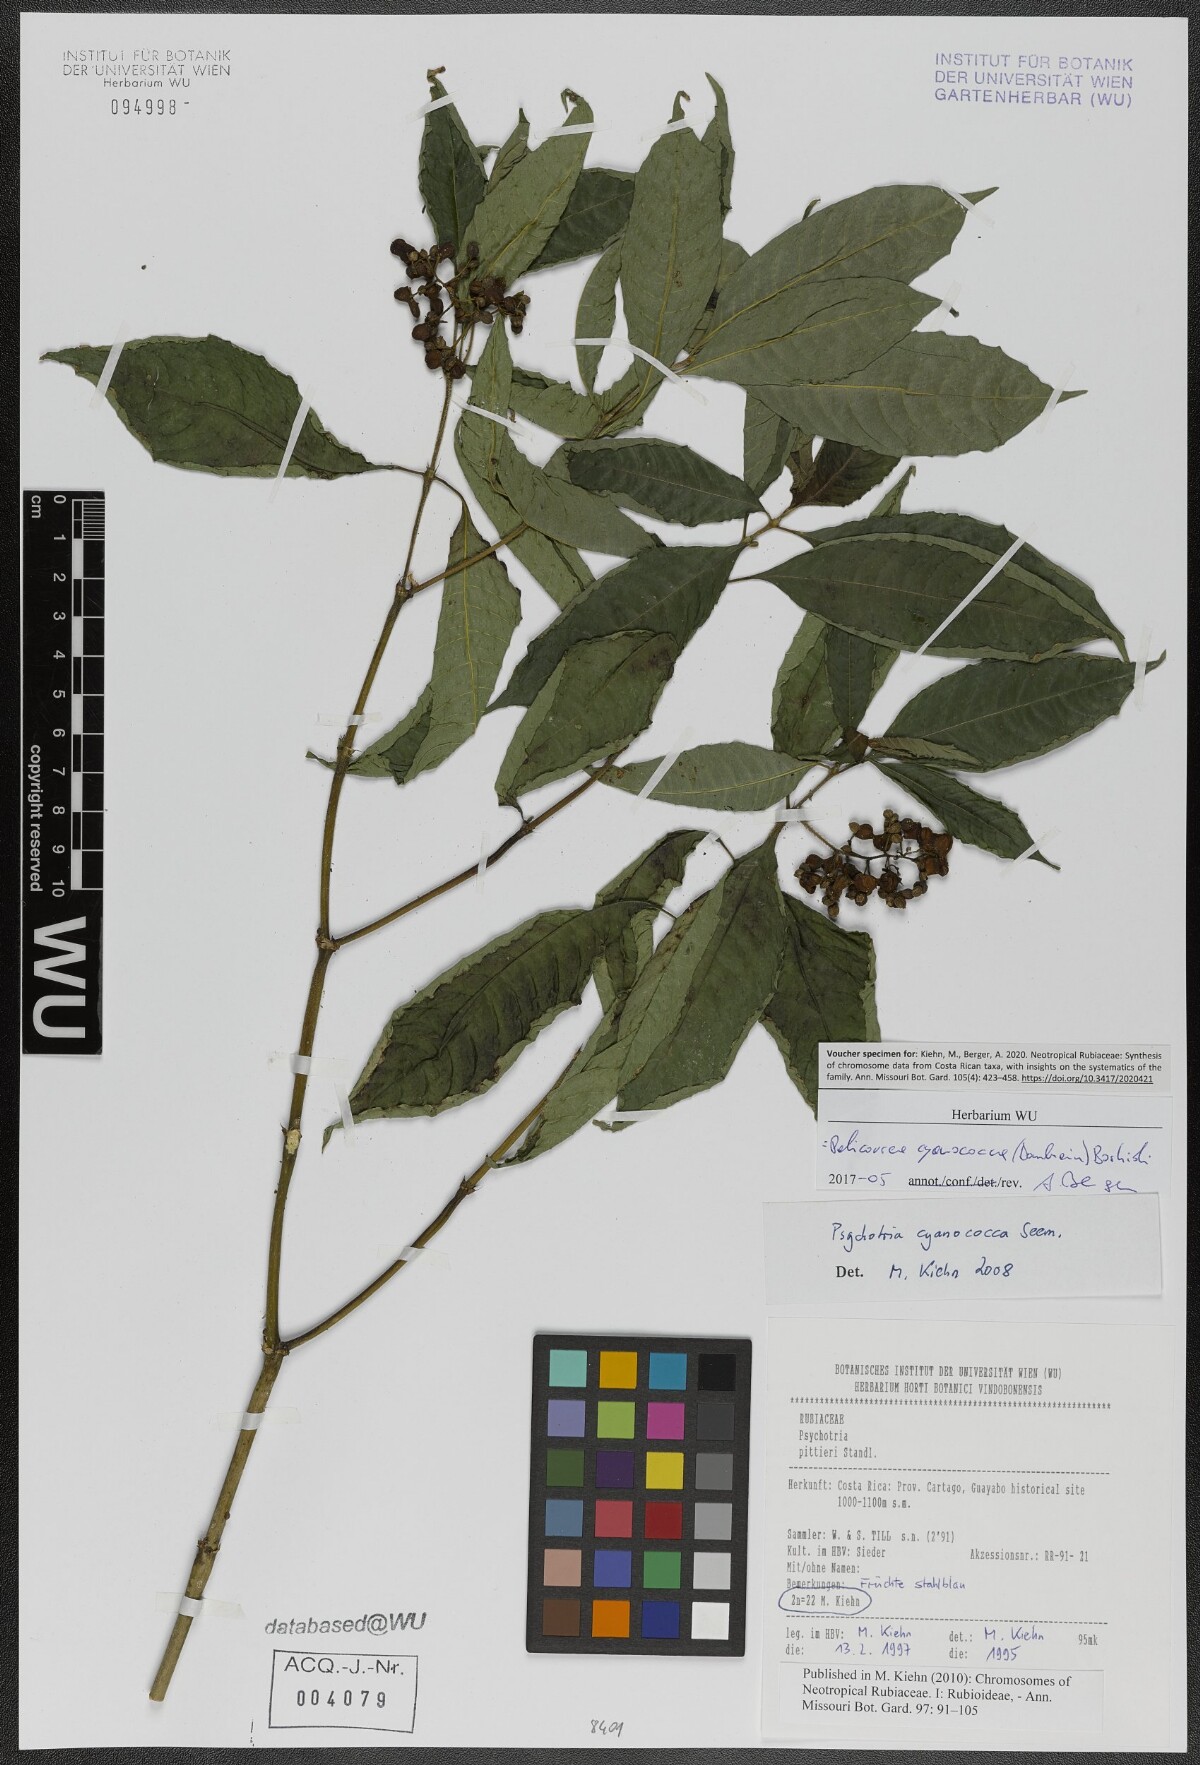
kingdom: Plantae
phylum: Tracheophyta
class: Magnoliopsida
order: Gentianales
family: Rubiaceae
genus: Palicourea
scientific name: Palicourea cyanococca
